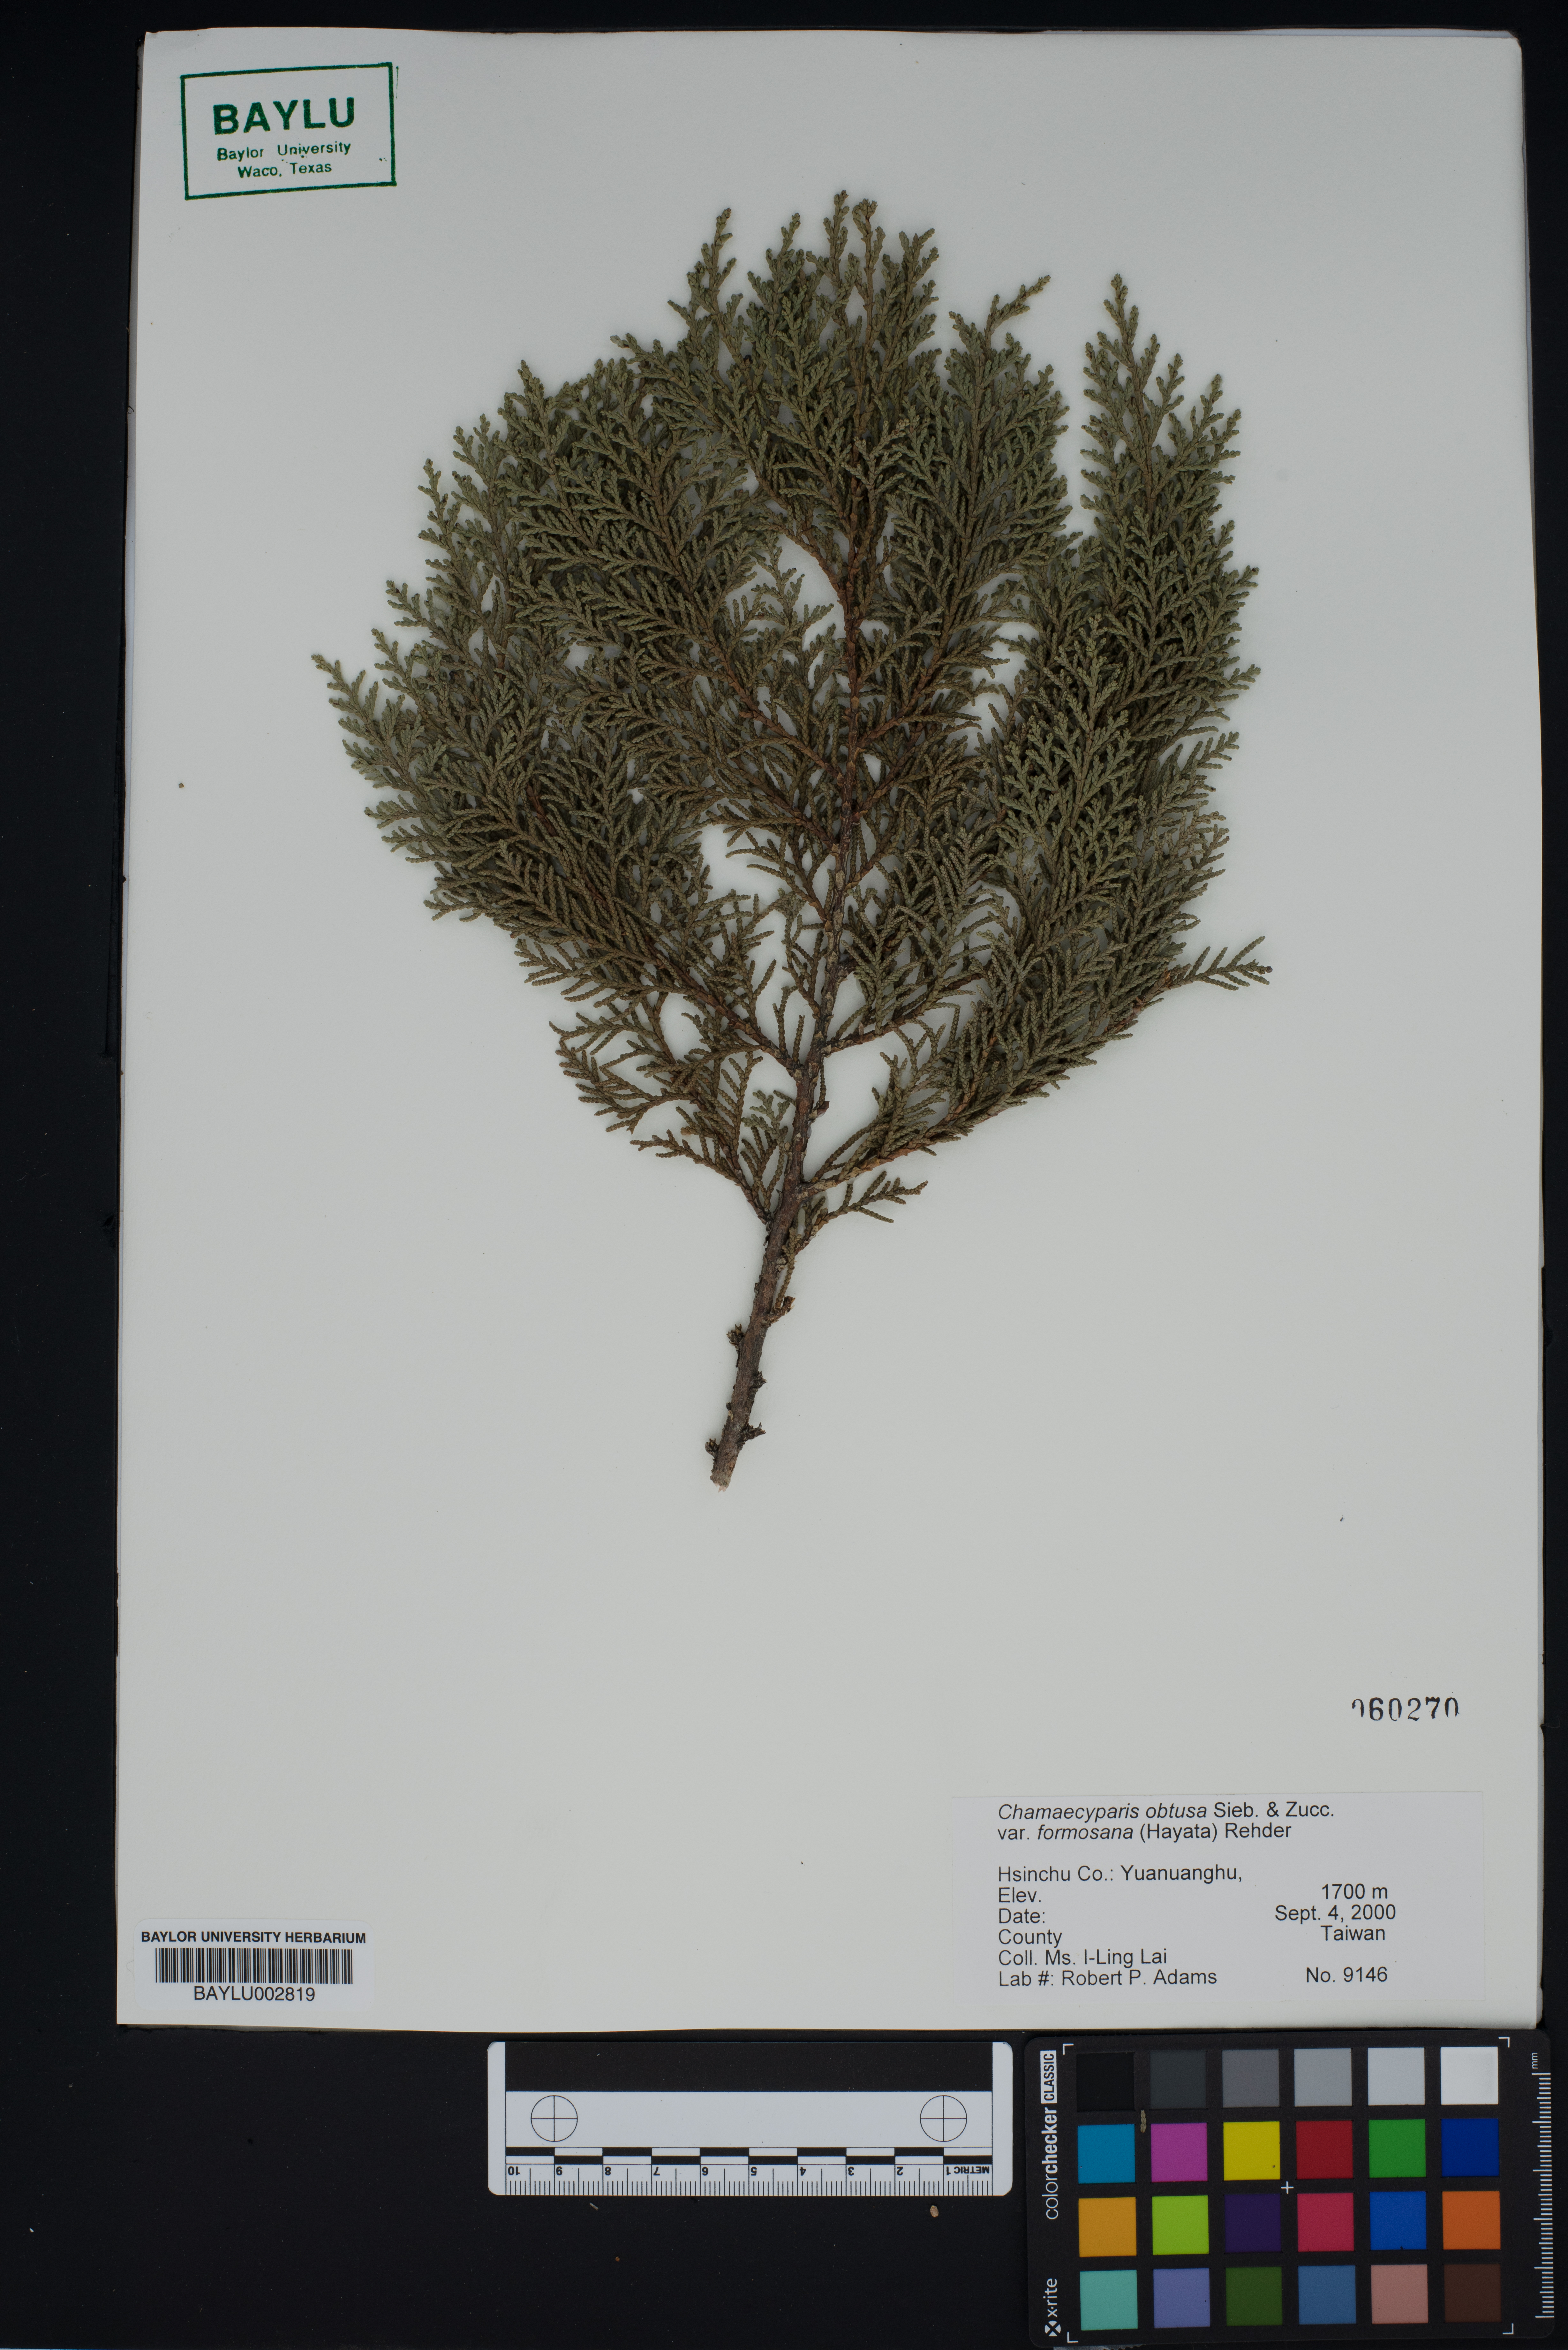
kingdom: Plantae
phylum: Tracheophyta
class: Pinopsida
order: Pinales
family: Cupressaceae
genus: Chamaecyparis
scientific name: Chamaecyparis obtusa
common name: Hinoki false cypress
